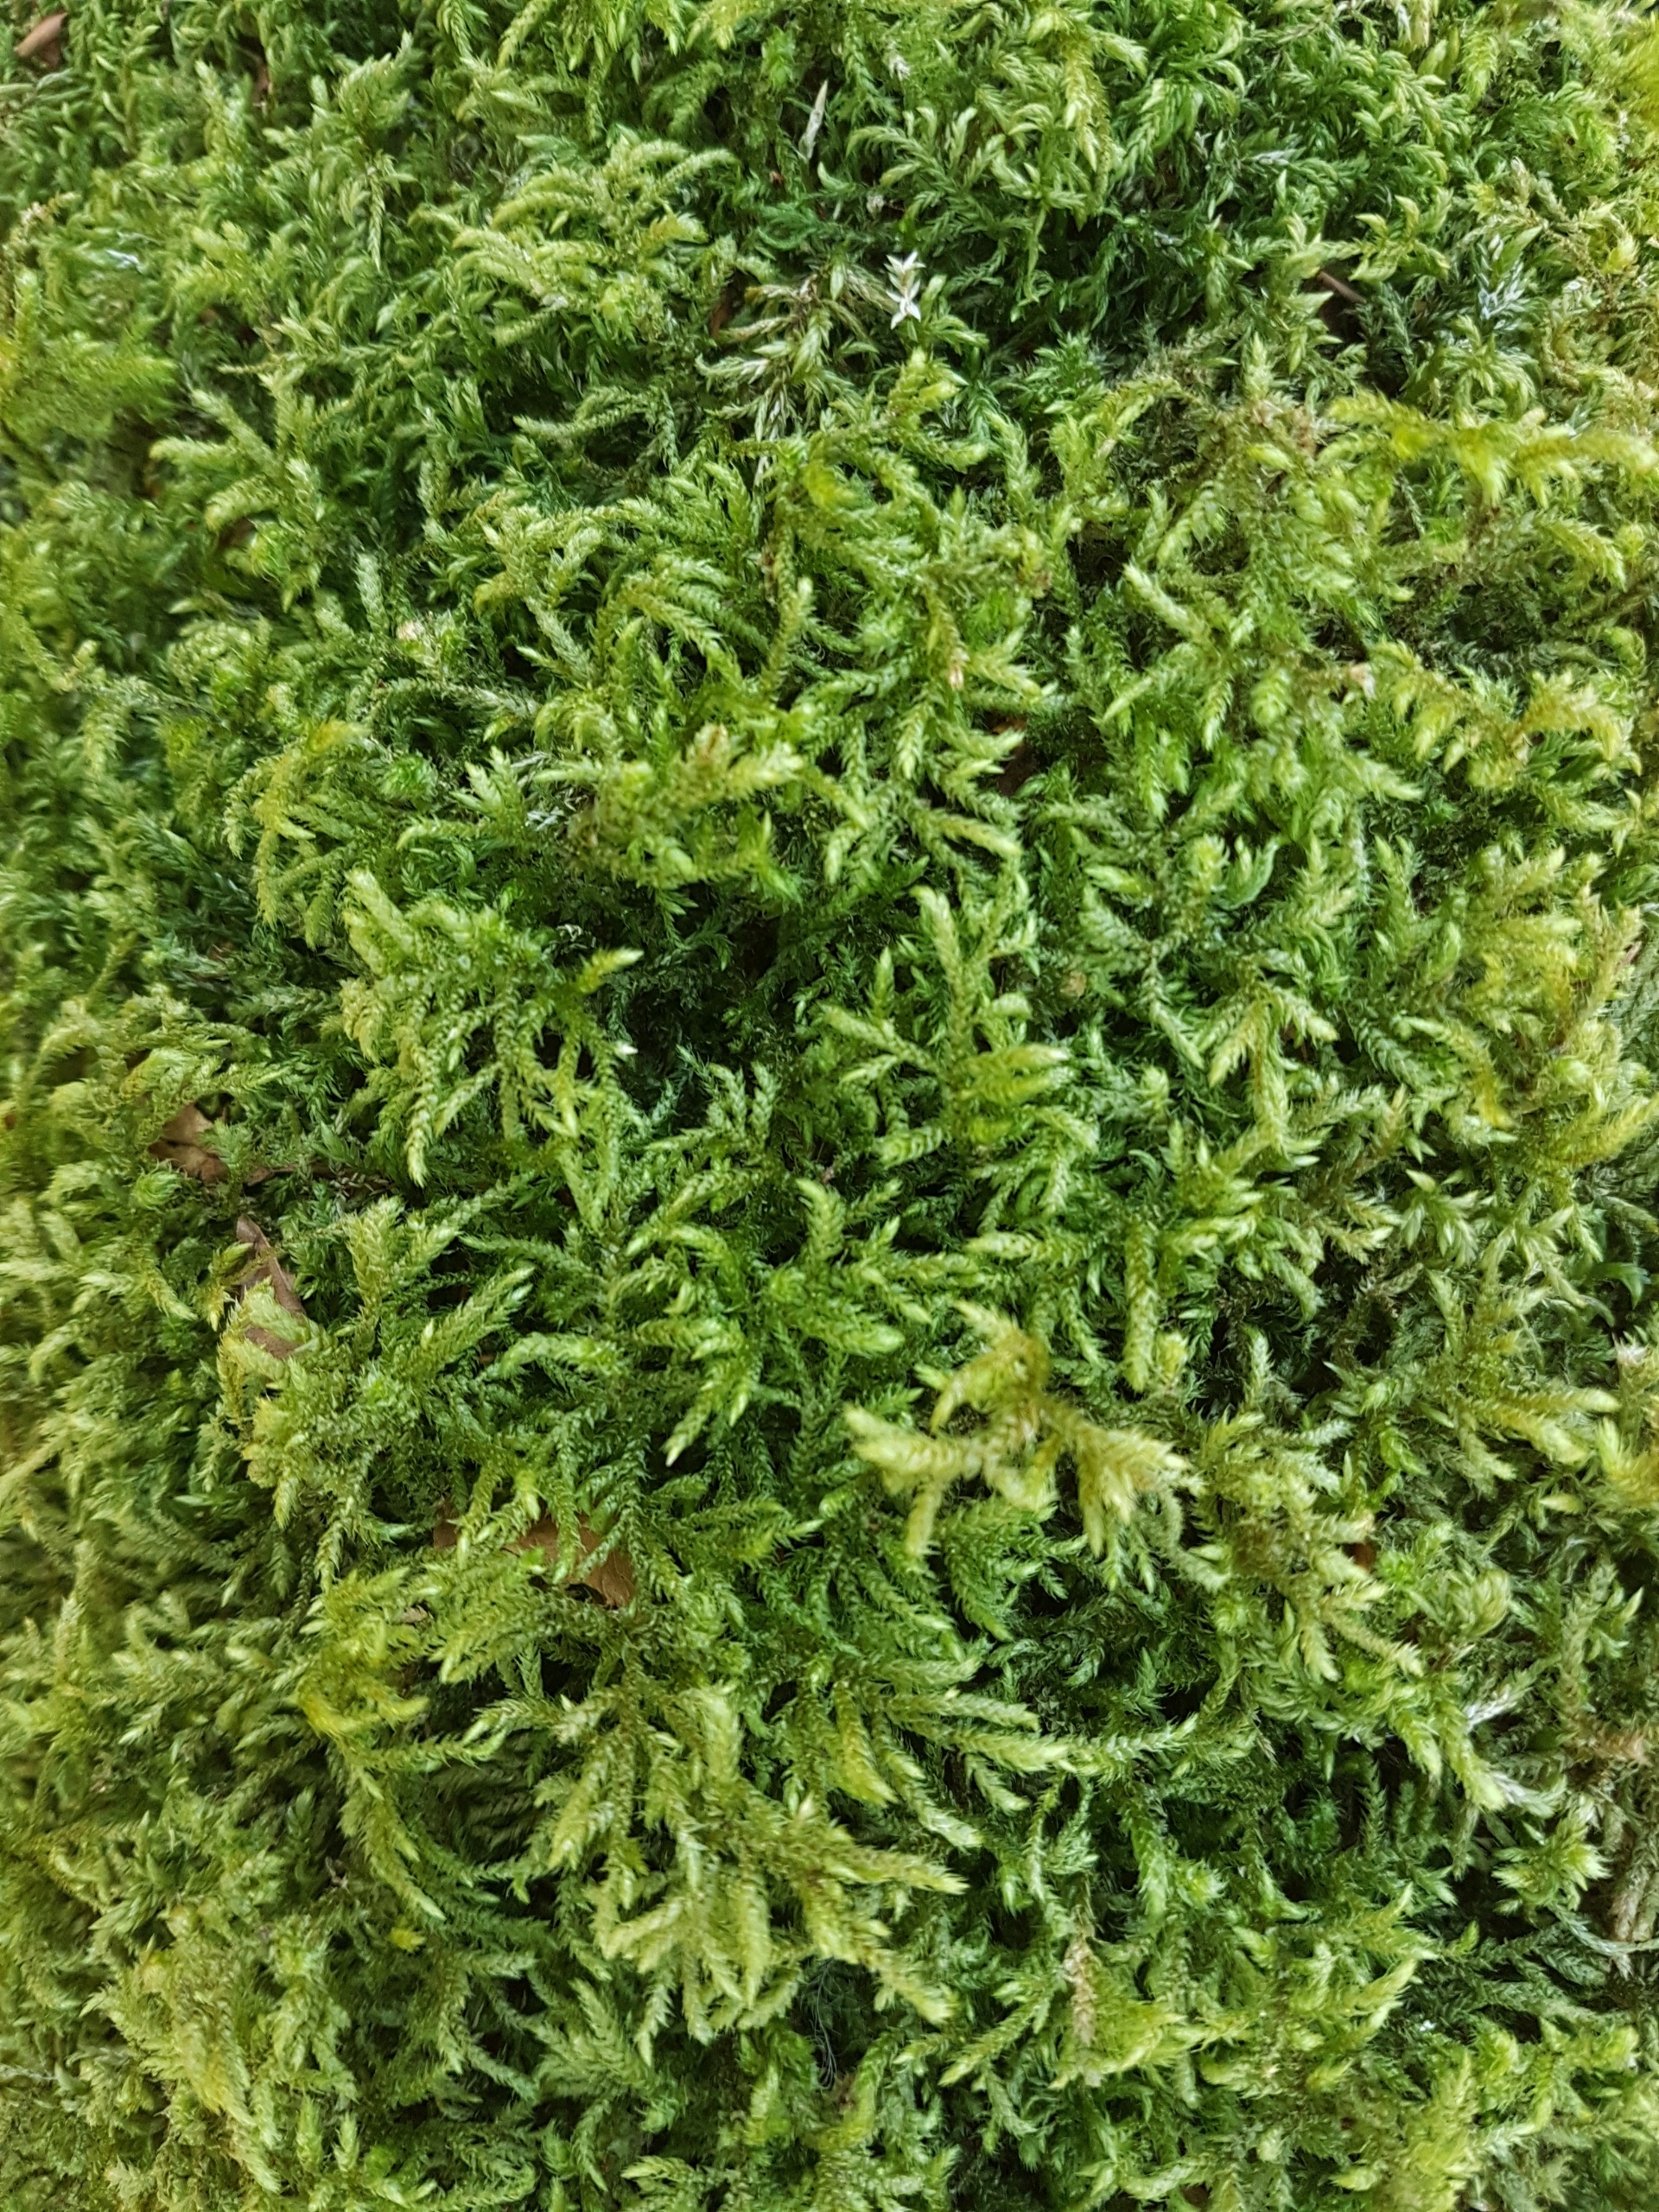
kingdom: Plantae
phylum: Bryophyta
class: Bryopsida
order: Hypnales
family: Hylocomiaceae
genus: Loeskeobryum
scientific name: Loeskeobryum brevirostre
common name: Åben etagemos
